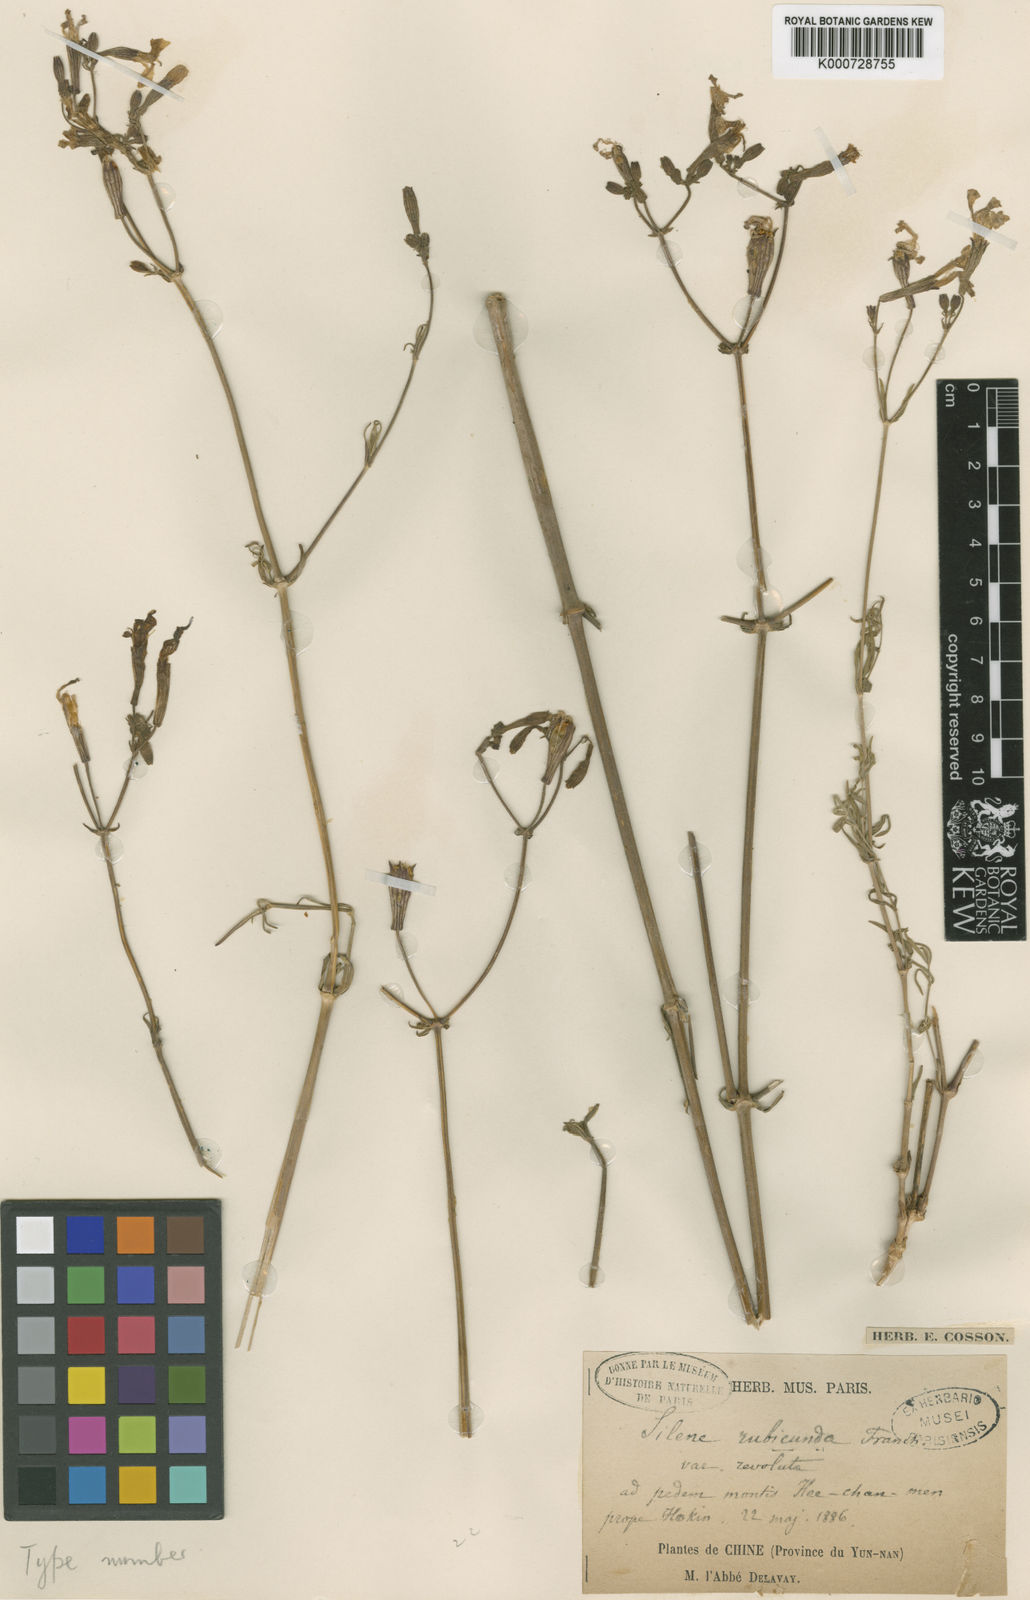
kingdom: Plantae
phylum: Tracheophyta
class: Magnoliopsida
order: Caryophyllales
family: Caryophyllaceae
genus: Silene
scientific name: Silene platyphylla
